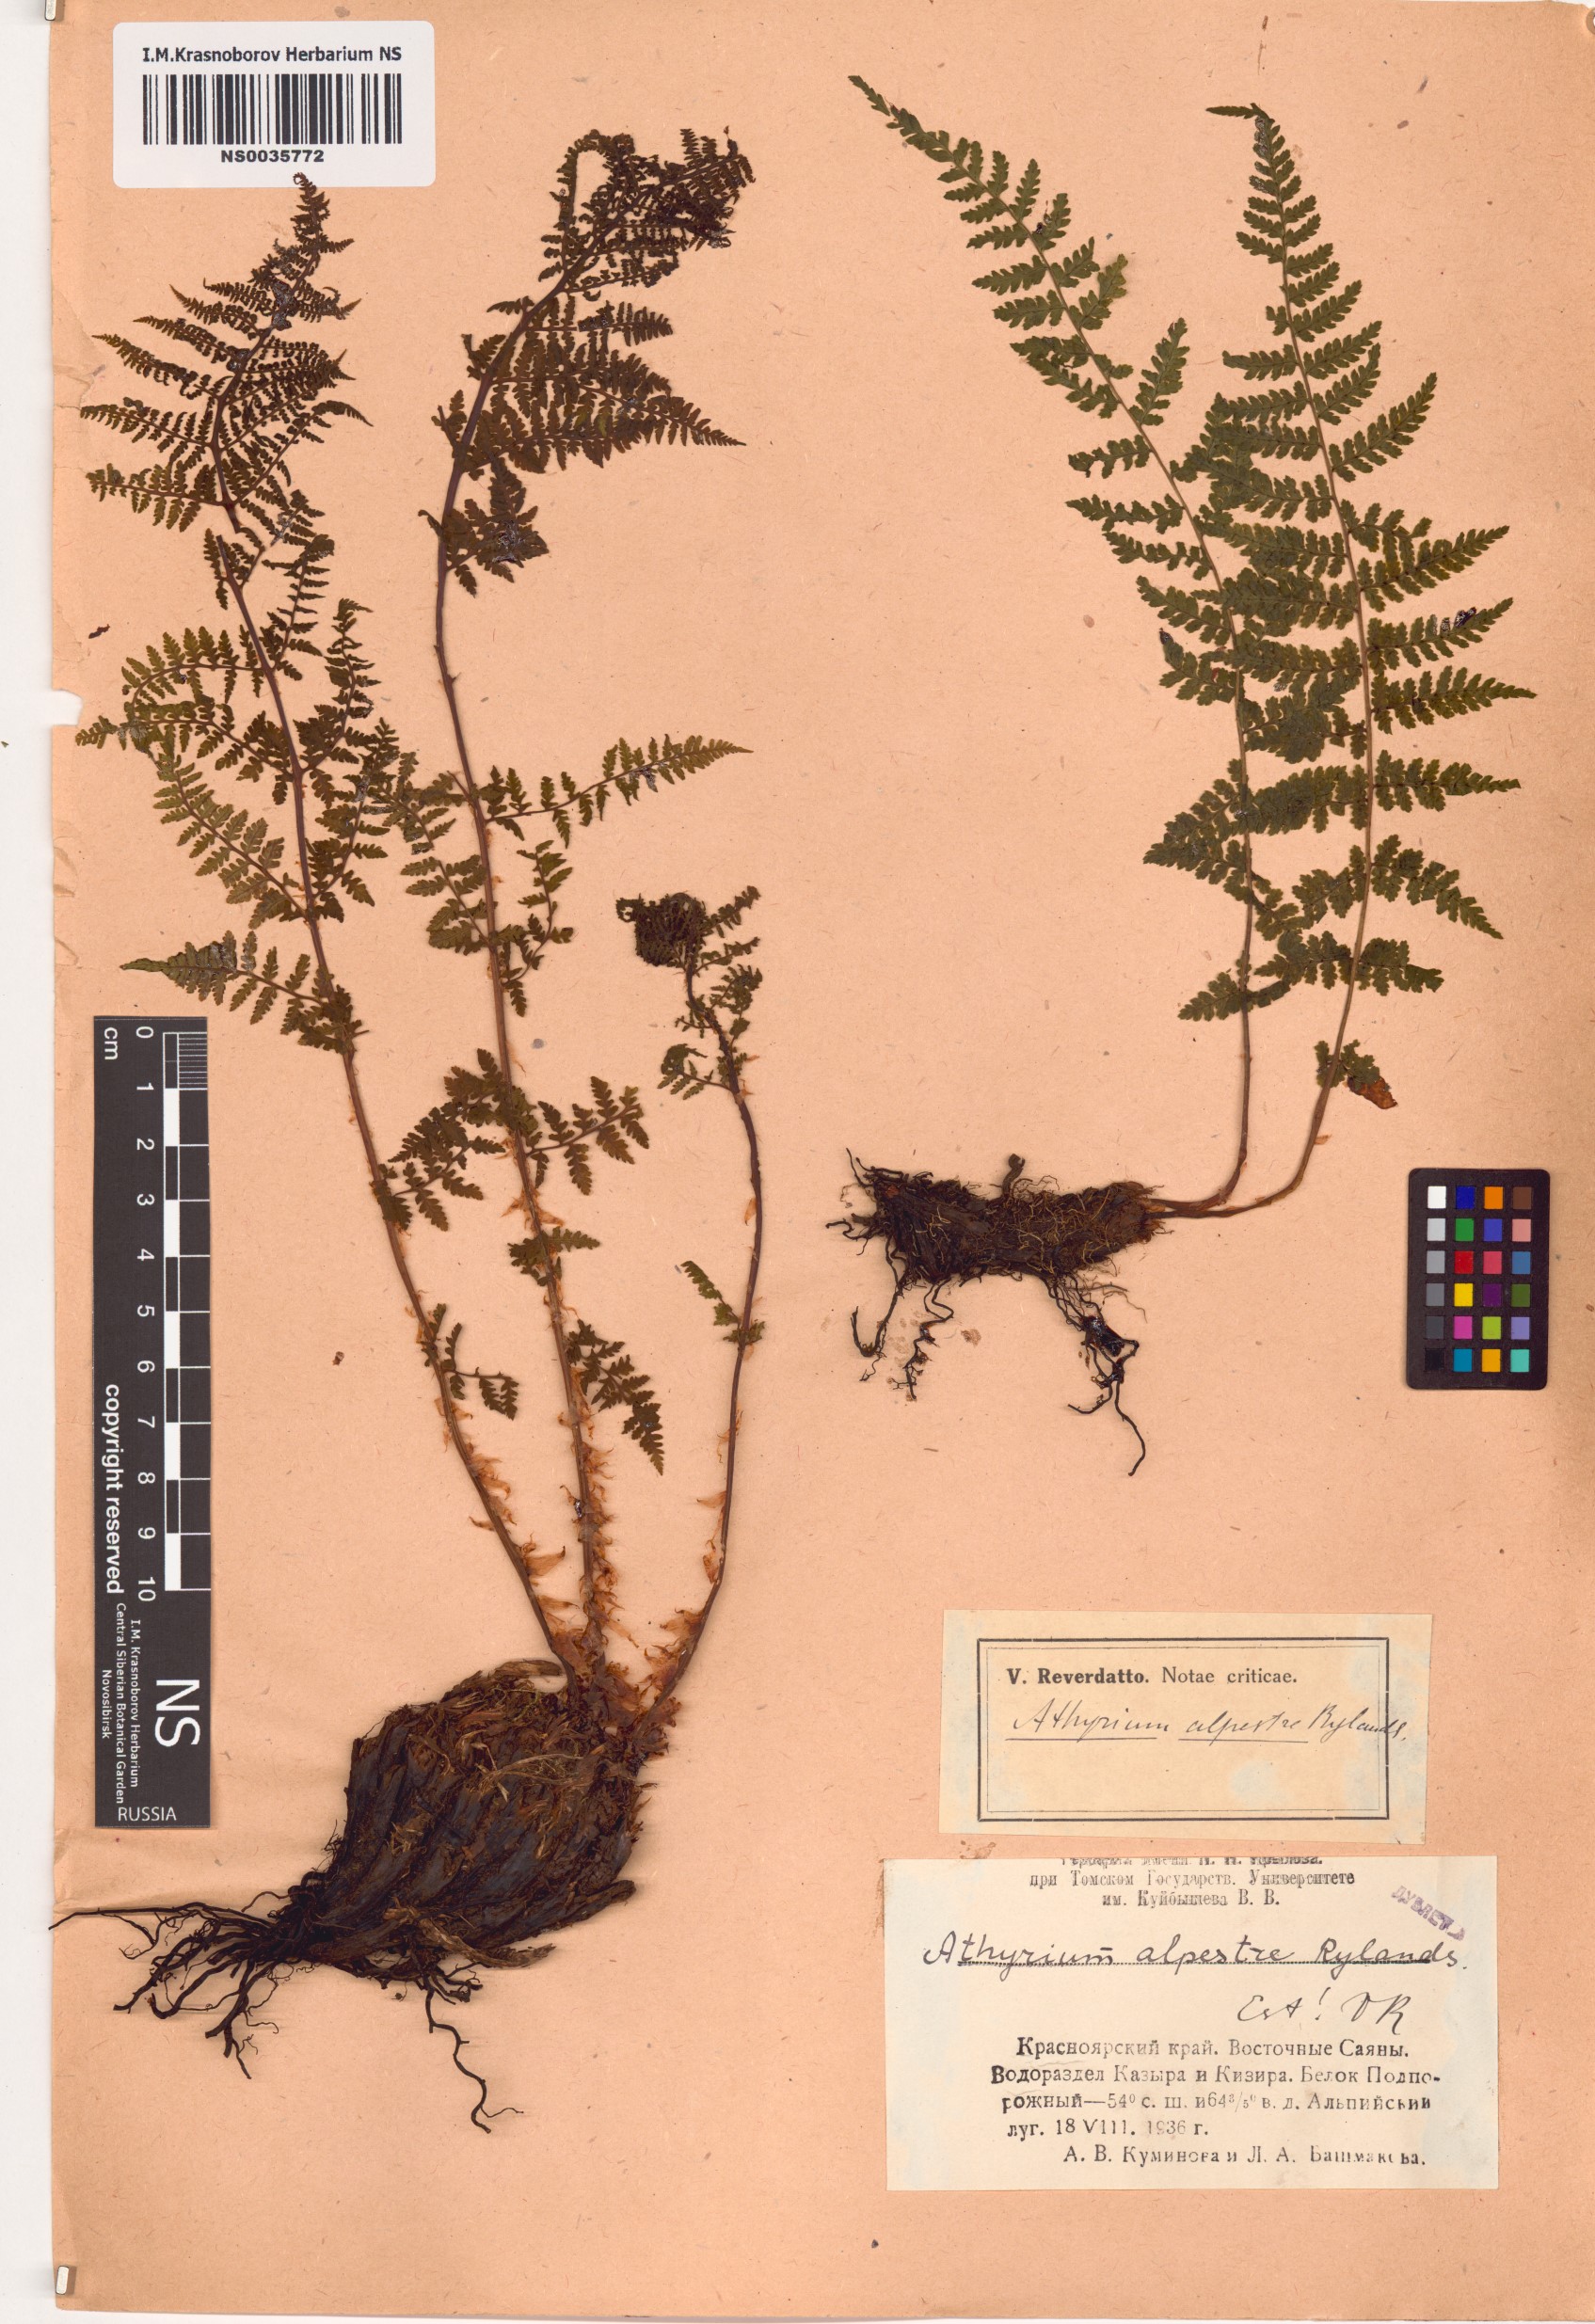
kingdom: Plantae
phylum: Tracheophyta
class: Polypodiopsida
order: Polypodiales
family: Athyriaceae
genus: Pseudathyrium
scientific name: Pseudathyrium alpestre
